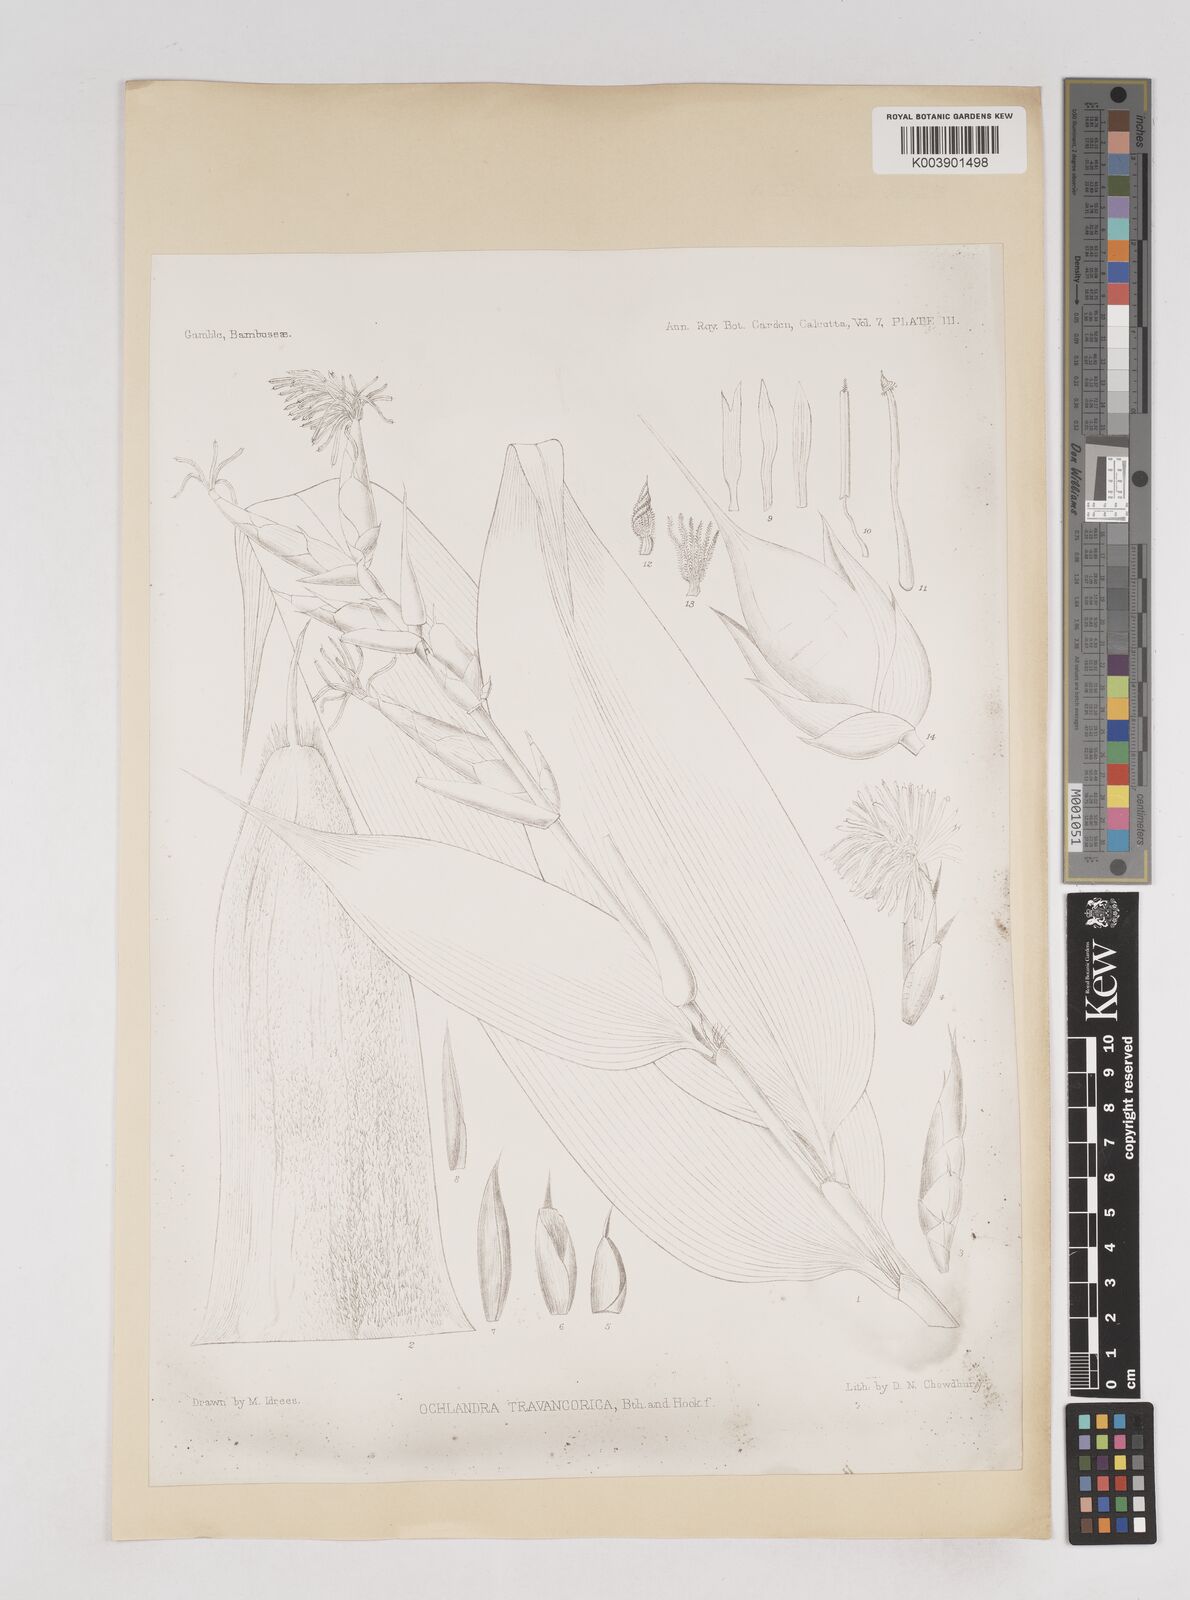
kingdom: Plantae
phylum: Tracheophyta
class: Liliopsida
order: Poales
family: Poaceae
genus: Ochlandra
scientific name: Ochlandra travancorica
